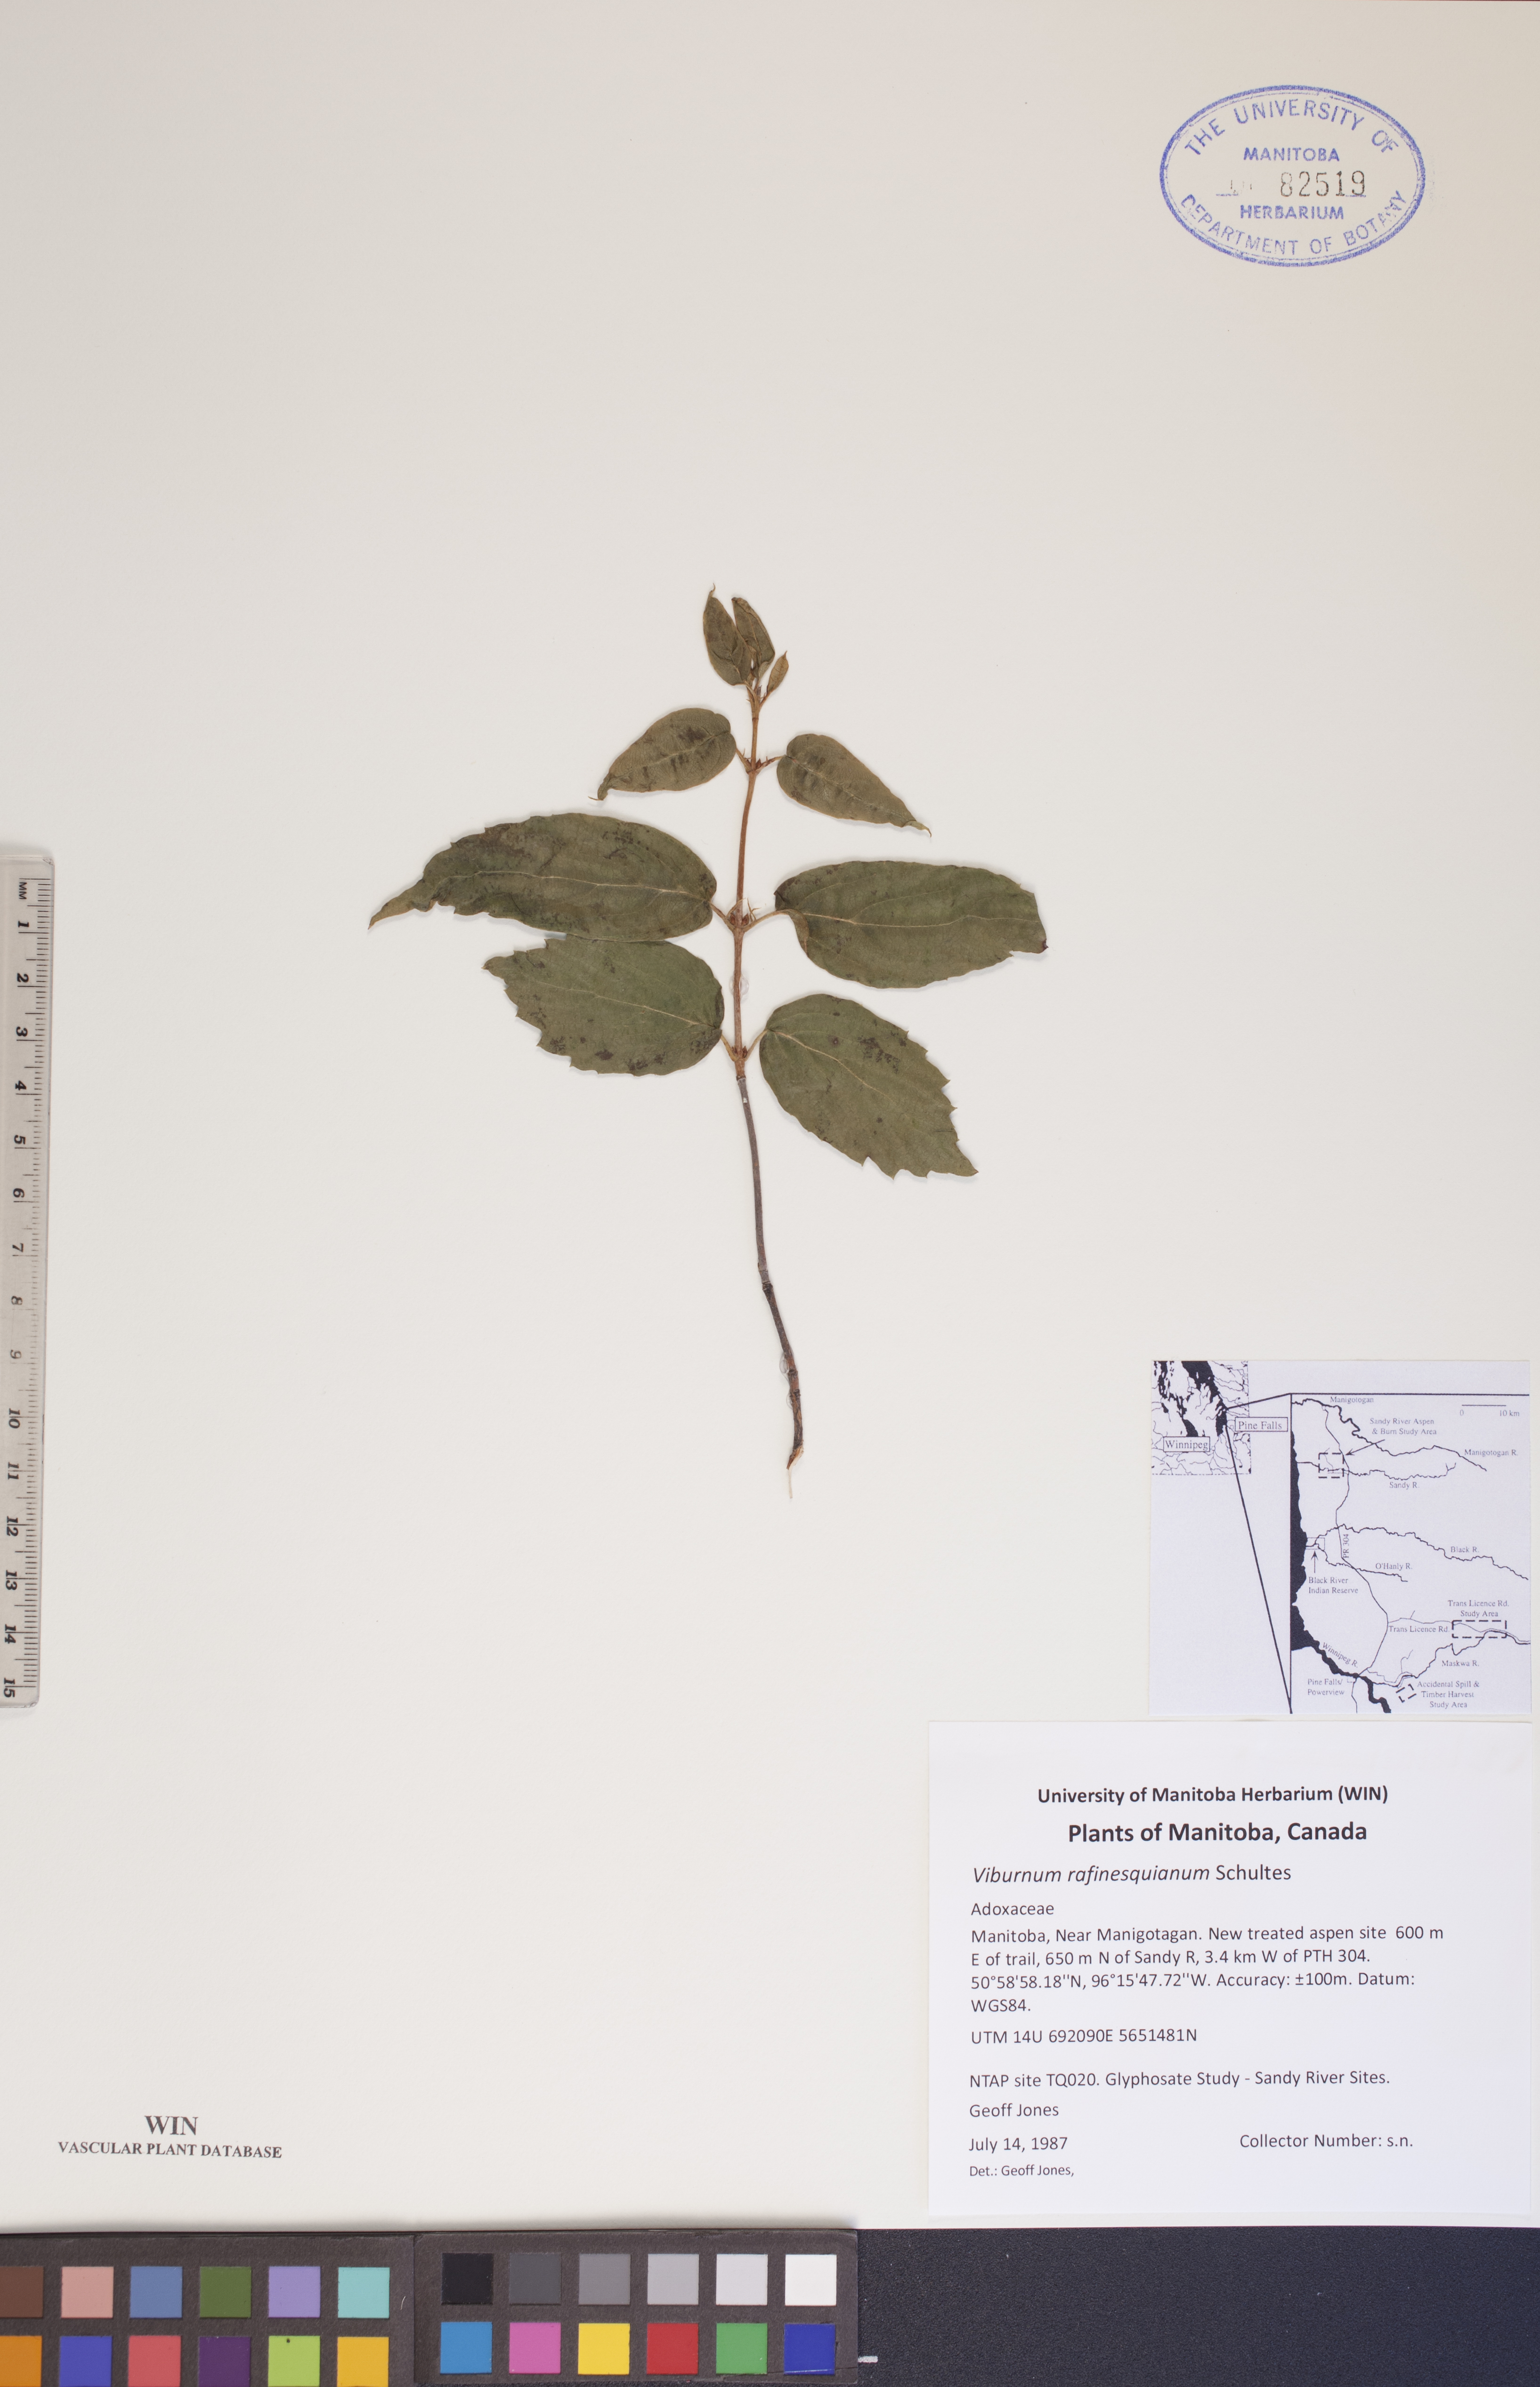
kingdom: Plantae
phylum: Tracheophyta
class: Magnoliopsida
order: Dipsacales
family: Viburnaceae
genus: Viburnum
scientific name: Viburnum rafinesquianum
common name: Downy arrow-wood
